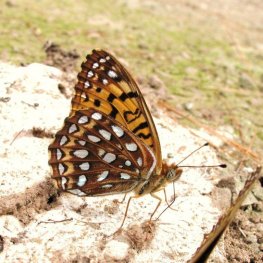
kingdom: Animalia
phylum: Arthropoda
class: Insecta
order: Lepidoptera
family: Nymphalidae
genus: Speyeria
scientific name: Speyeria atlantis
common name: Atlantis Fritillary
